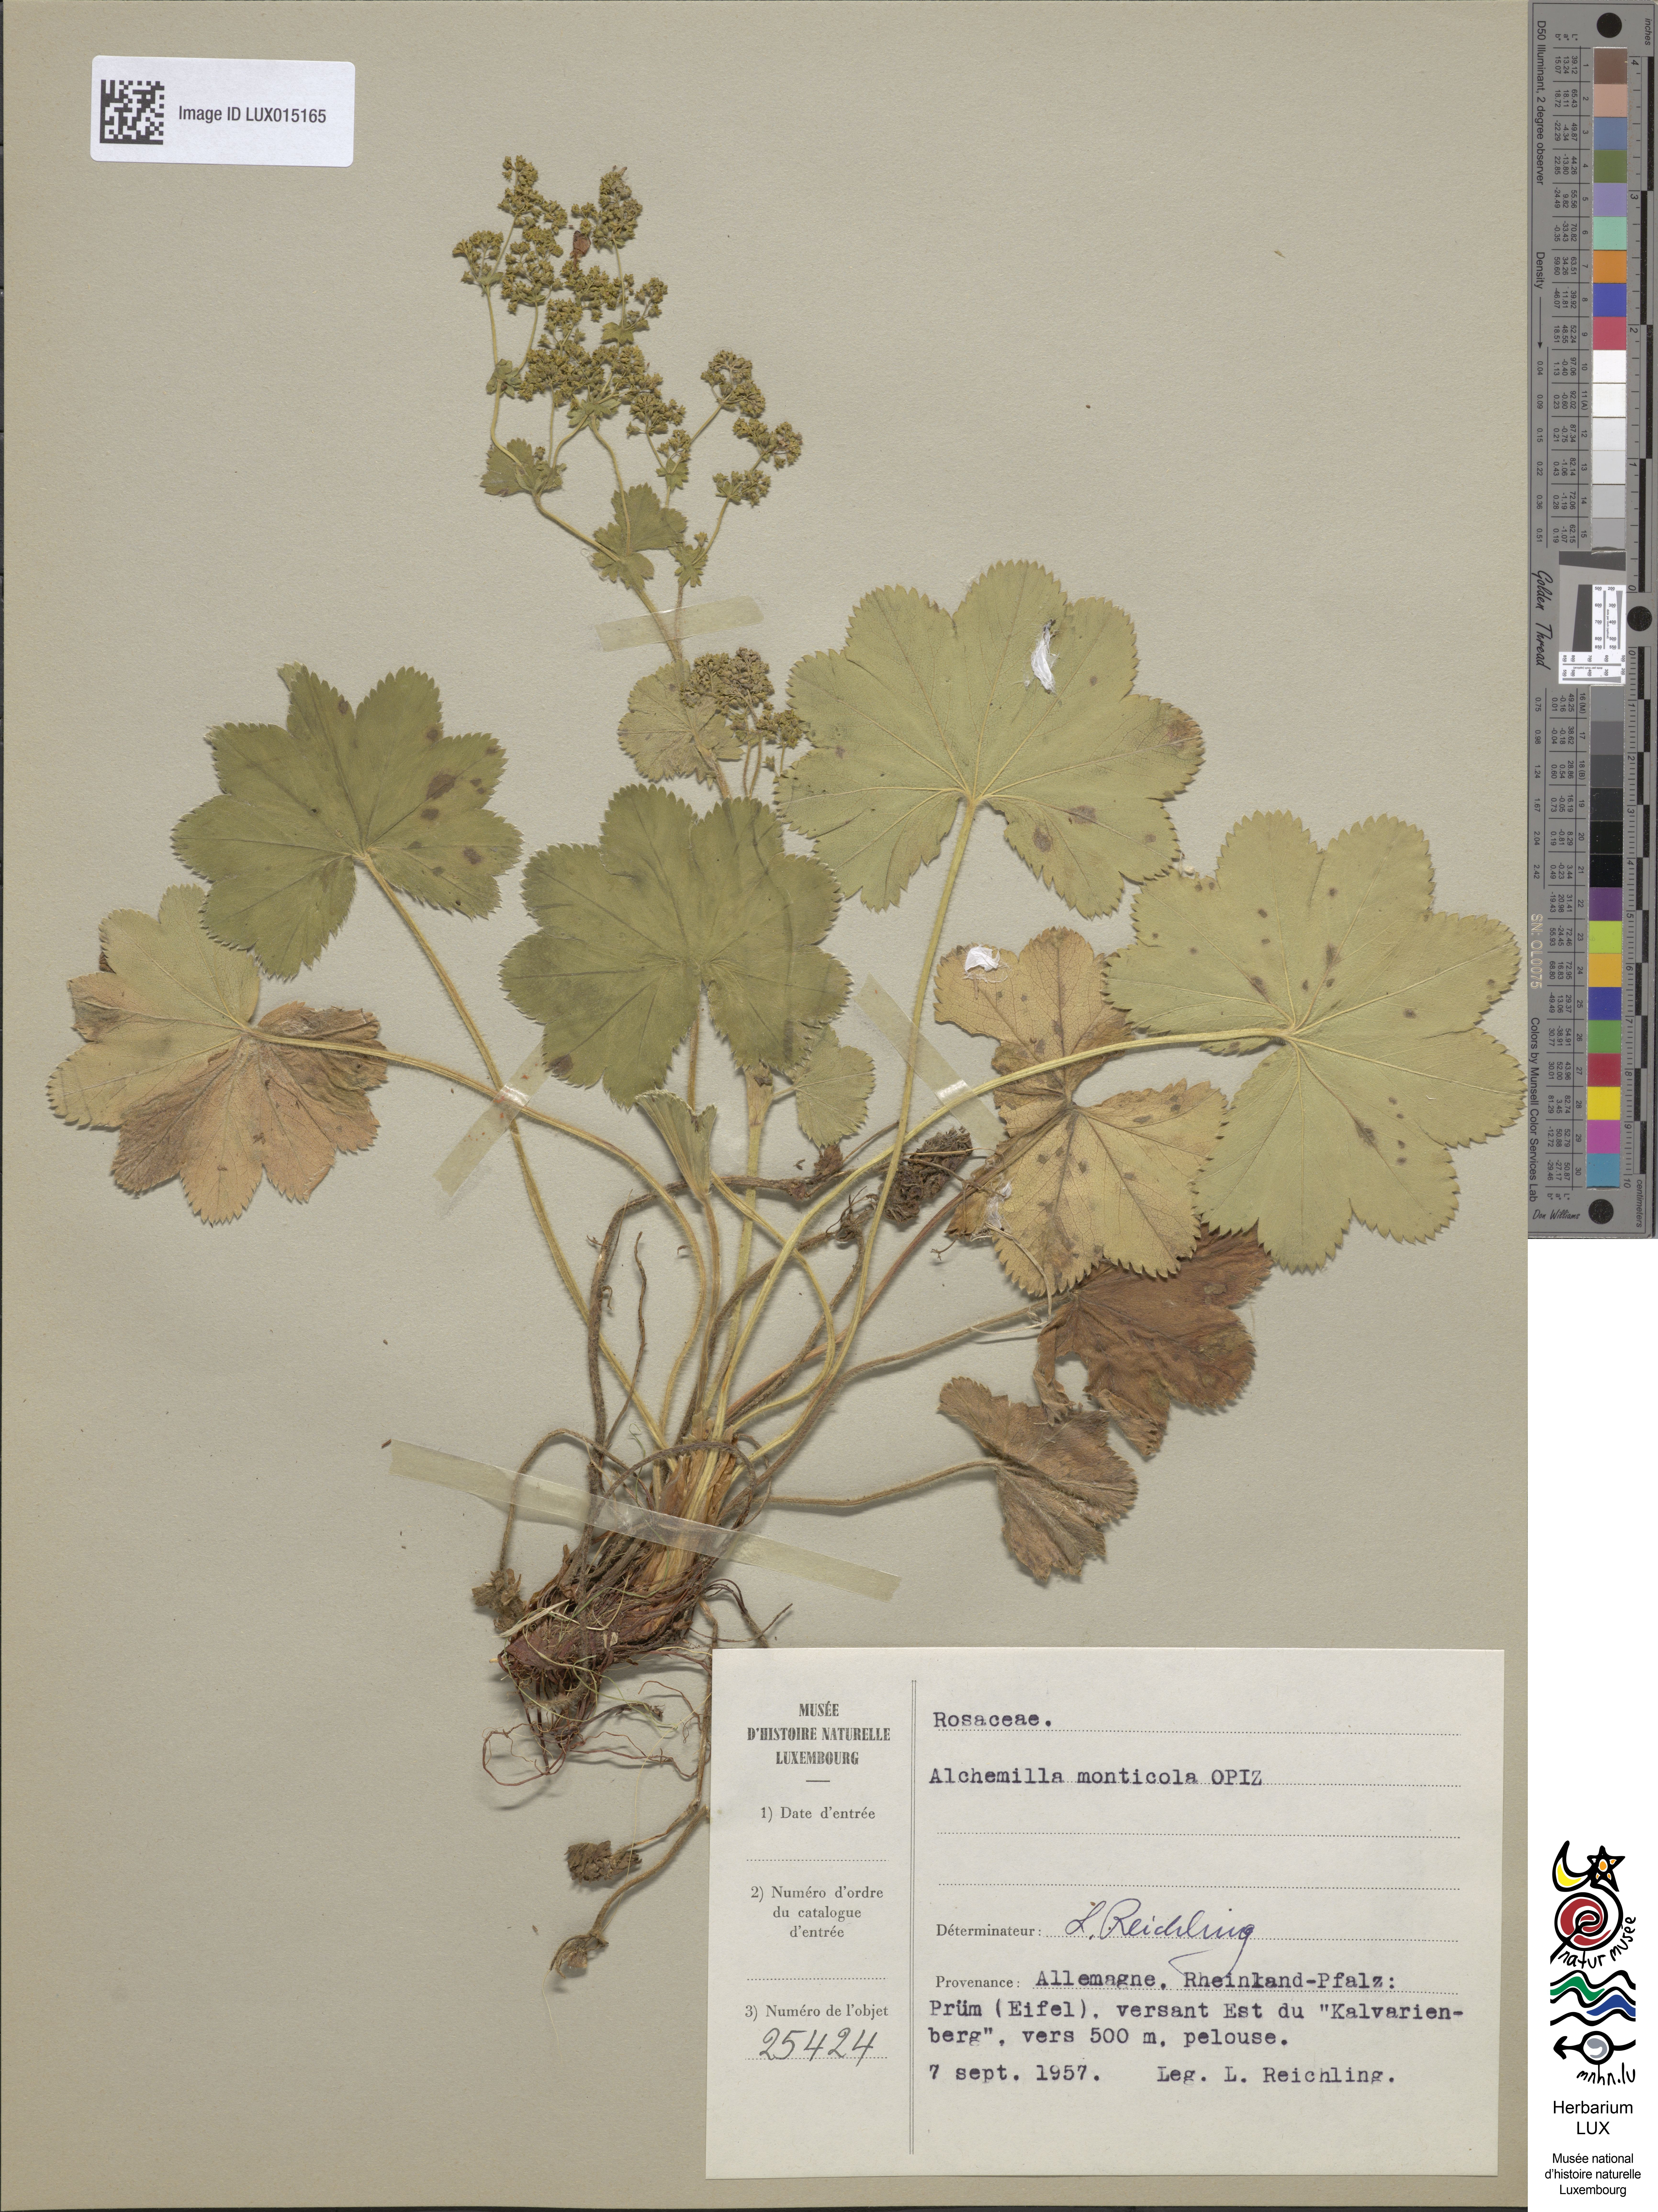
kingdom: Plantae
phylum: Tracheophyta
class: Magnoliopsida
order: Rosales
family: Rosaceae
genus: Alchemilla
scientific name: Alchemilla monticola
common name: Hairy lady's mantle
